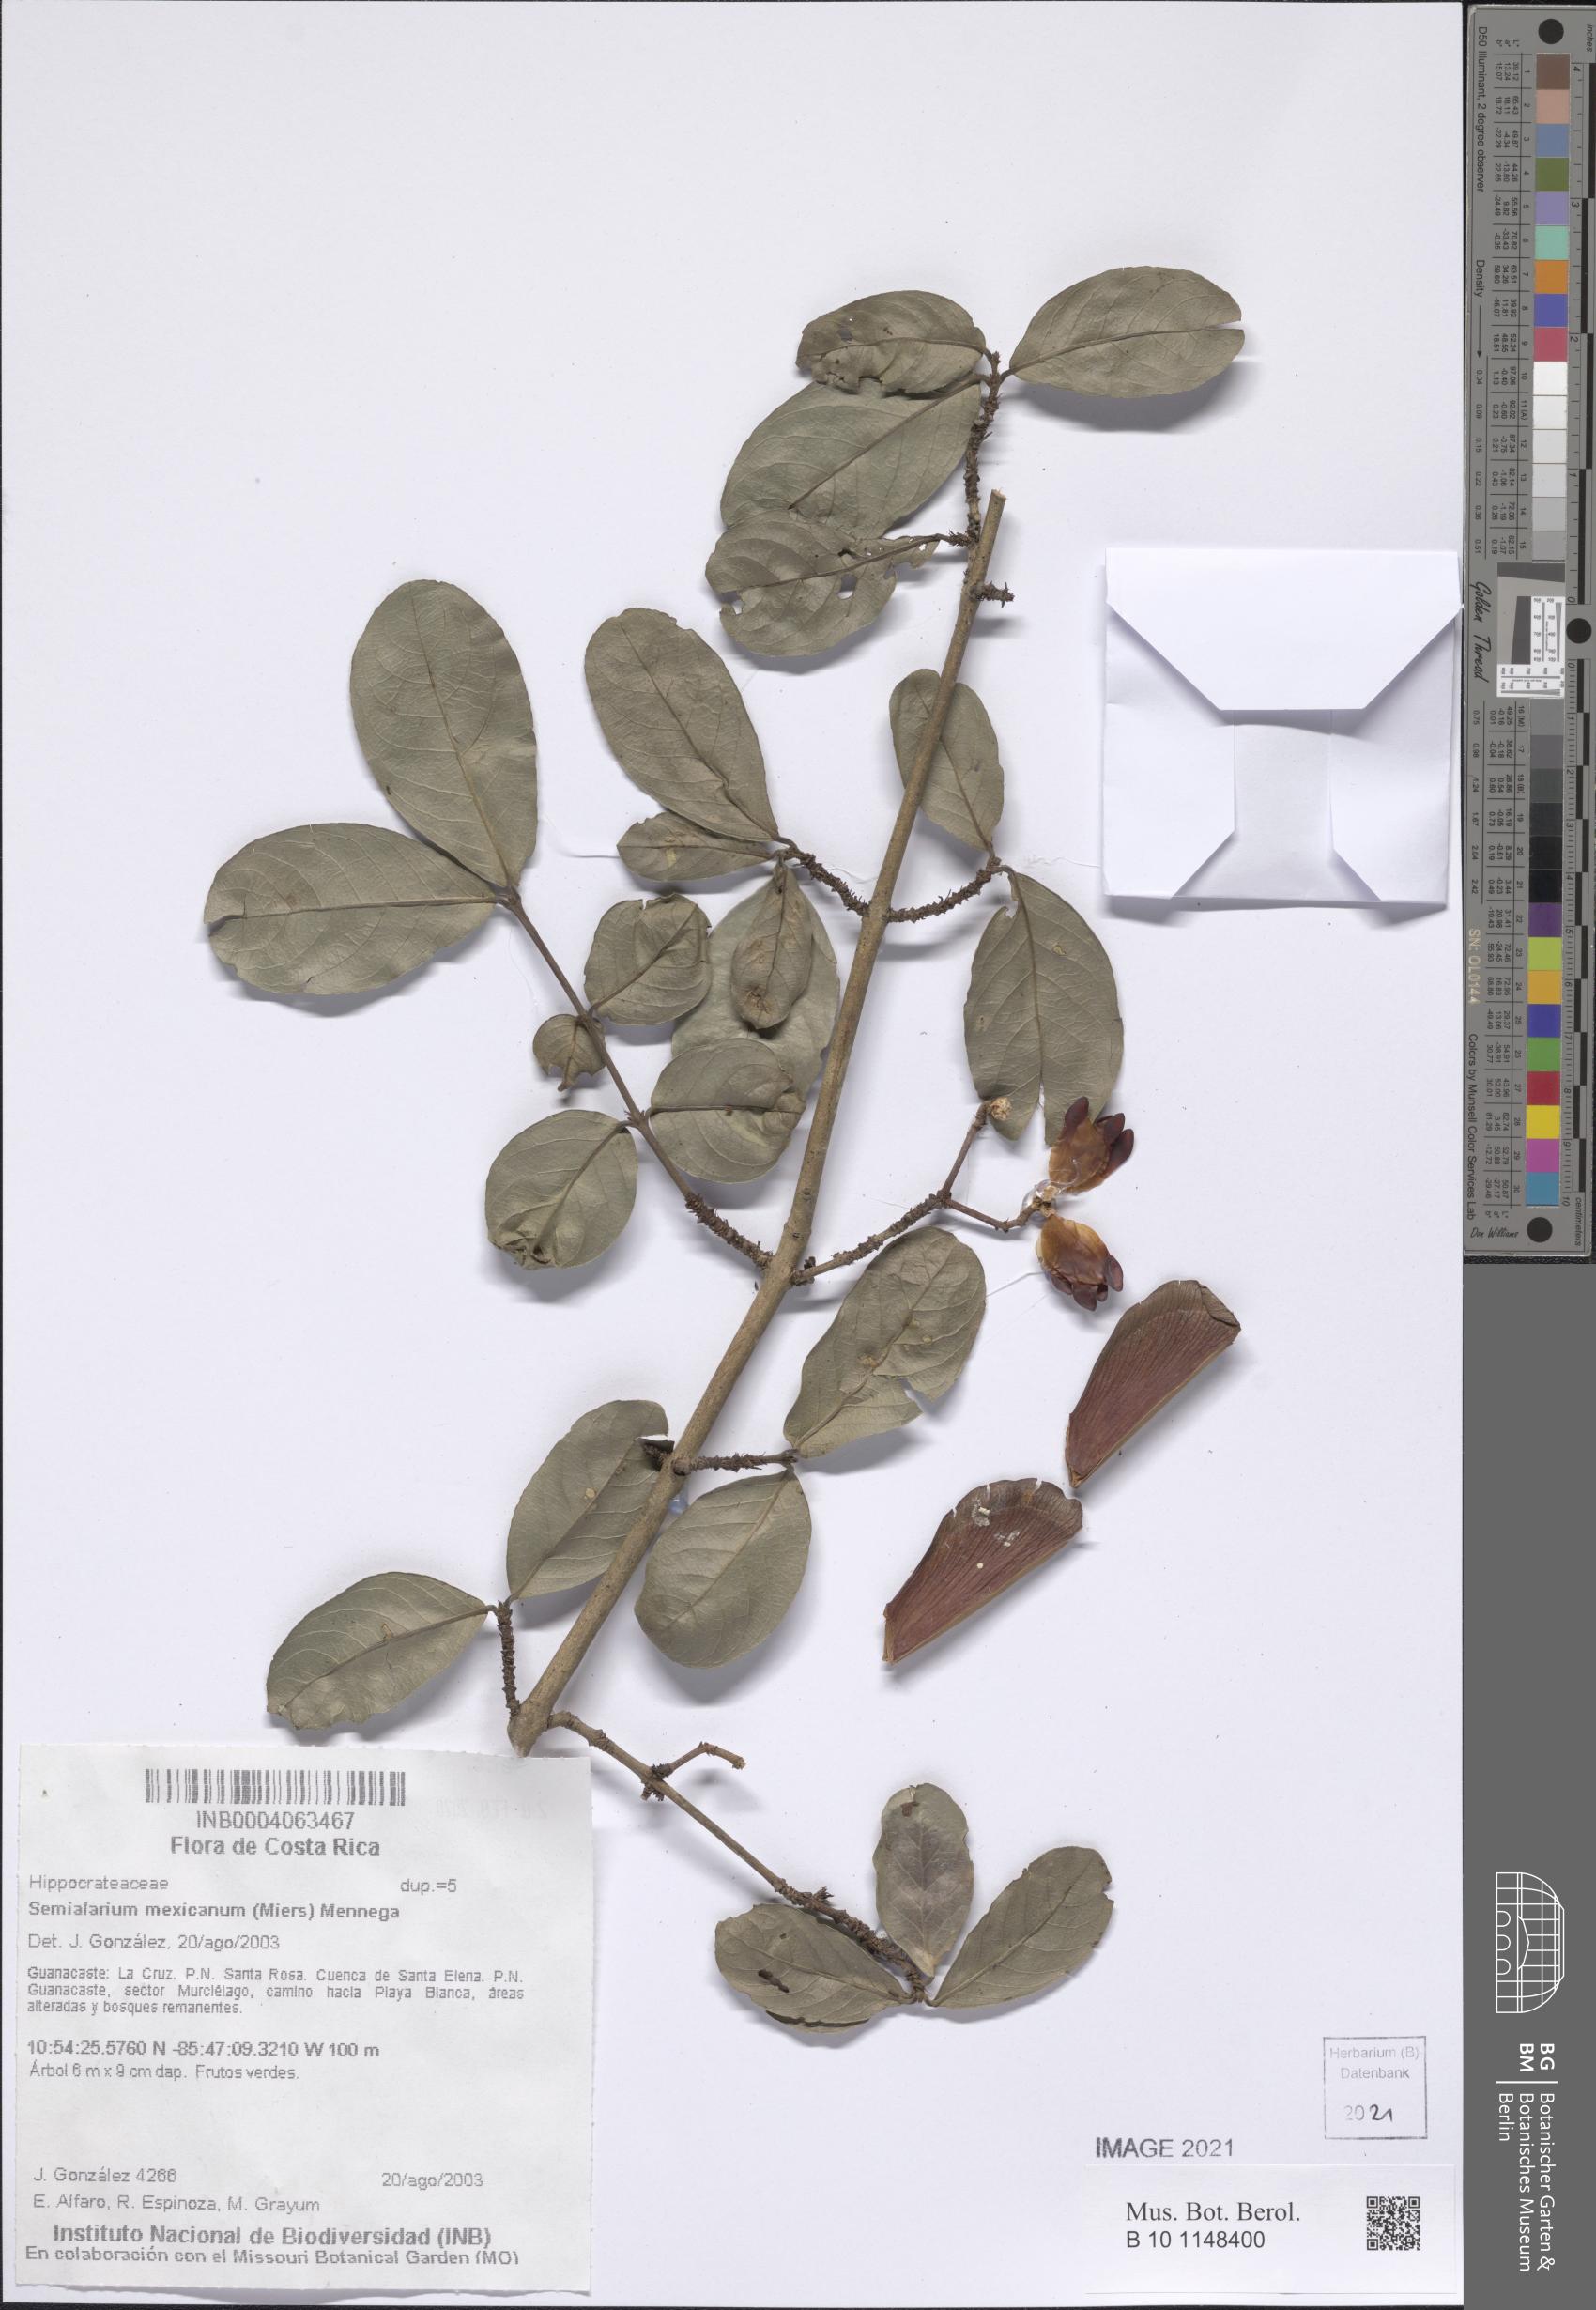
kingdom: Plantae
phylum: Tracheophyta
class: Magnoliopsida
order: Celastrales
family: Celastraceae
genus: Semialarium
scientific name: Semialarium mexicanum
